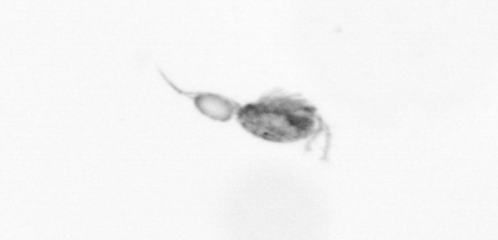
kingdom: Animalia
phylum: Arthropoda
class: Copepoda
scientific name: Copepoda
